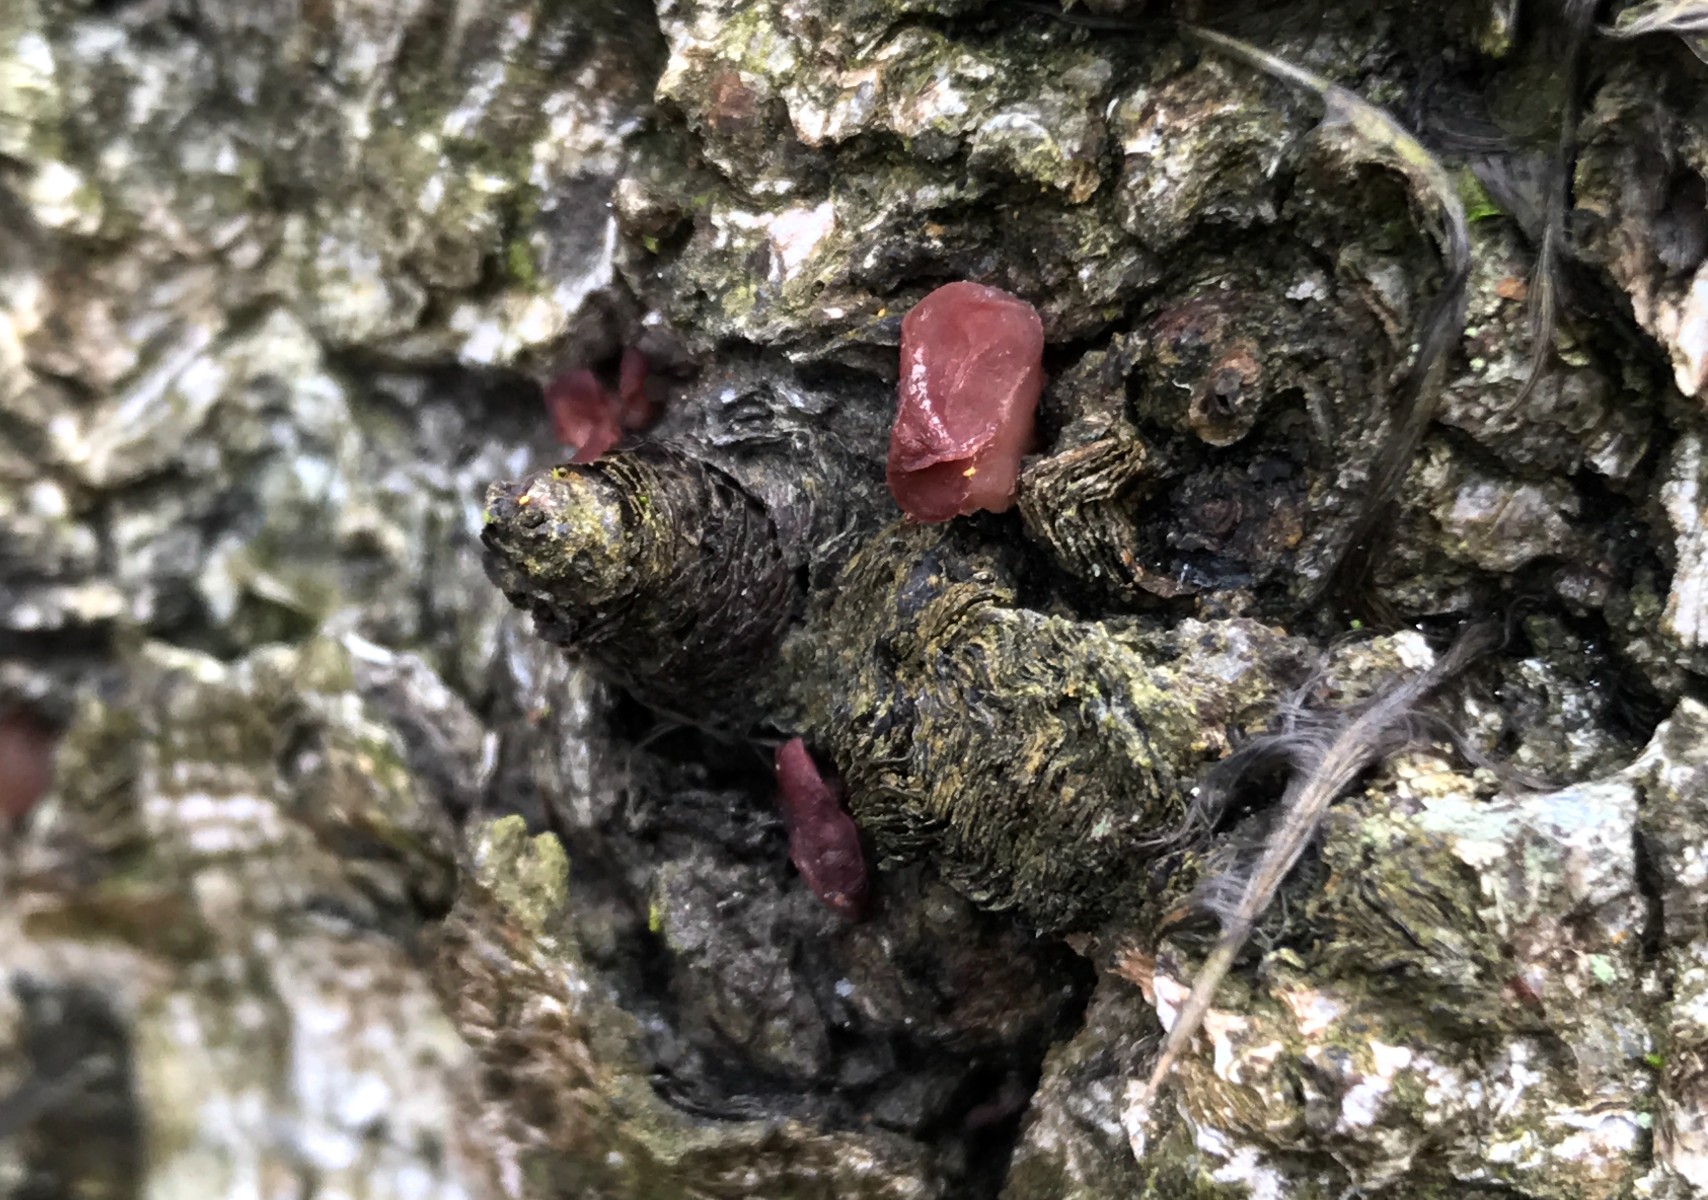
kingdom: Fungi
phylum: Ascomycota
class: Leotiomycetes
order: Helotiales
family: Gelatinodiscaceae
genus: Ascocoryne
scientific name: Ascocoryne sarcoides
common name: rødlilla sejskive
